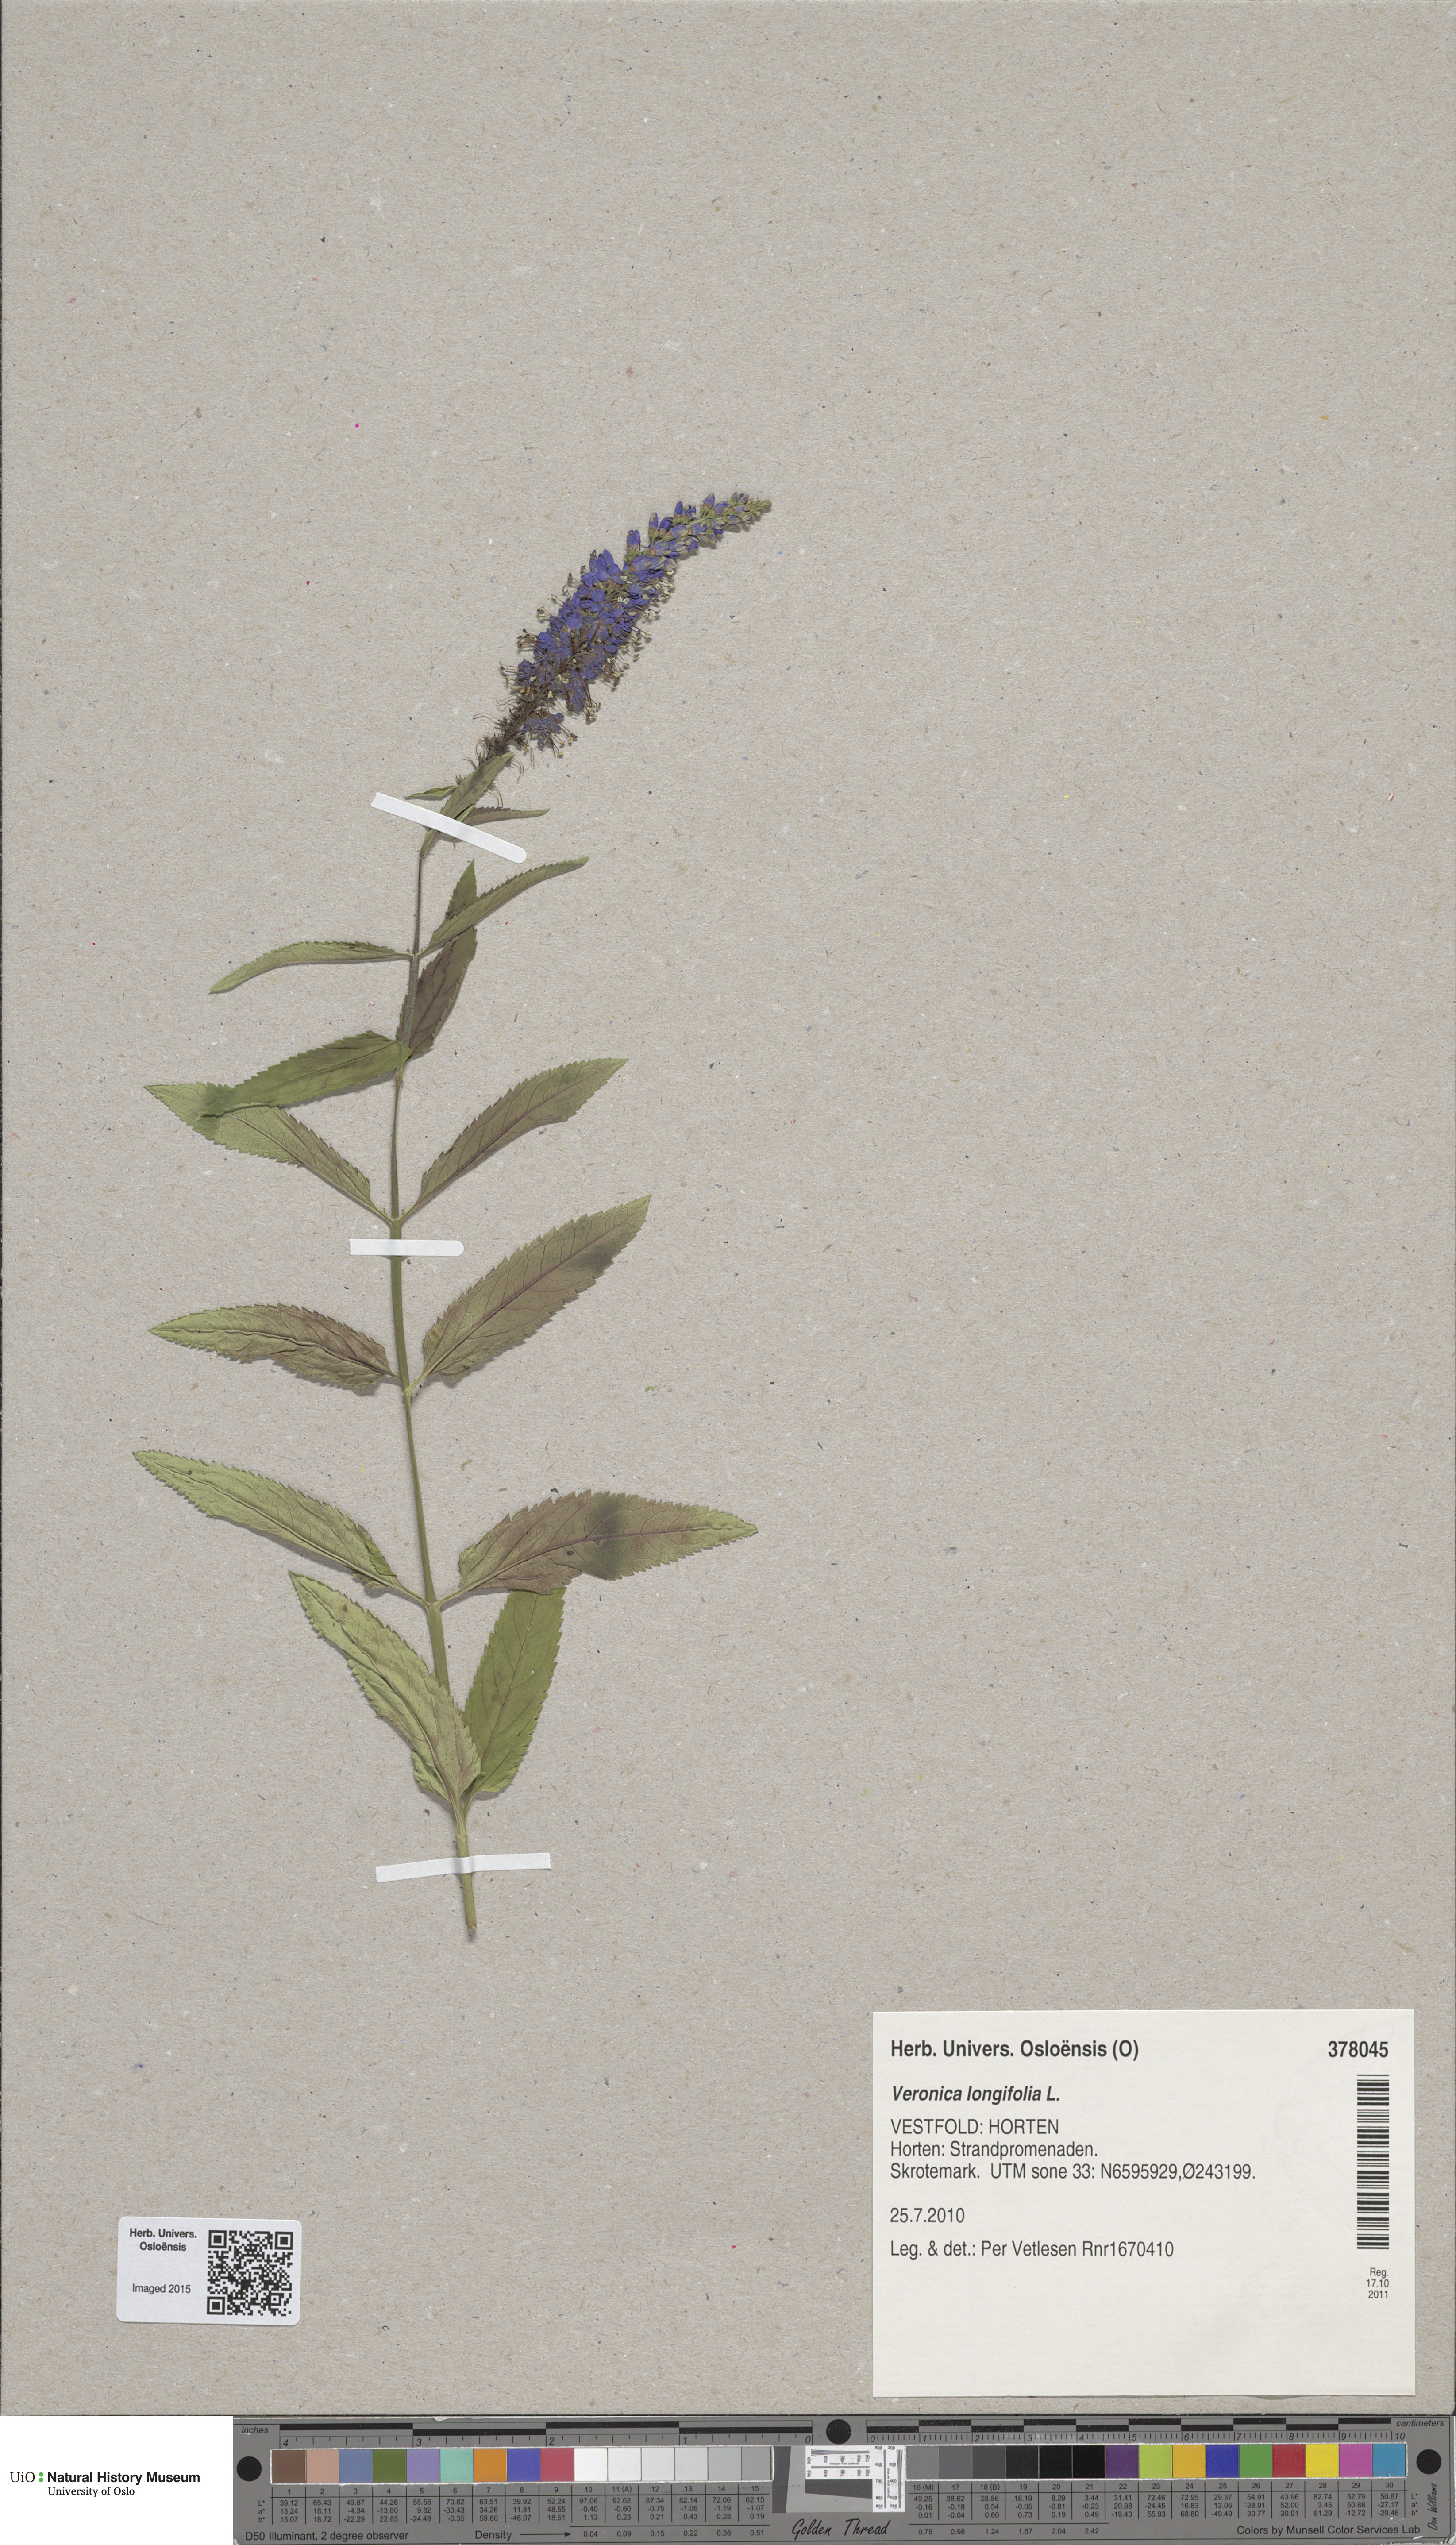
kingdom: Plantae
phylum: Tracheophyta
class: Magnoliopsida
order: Lamiales
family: Plantaginaceae
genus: Veronica
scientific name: Veronica longifolia
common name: Garden speedwell
